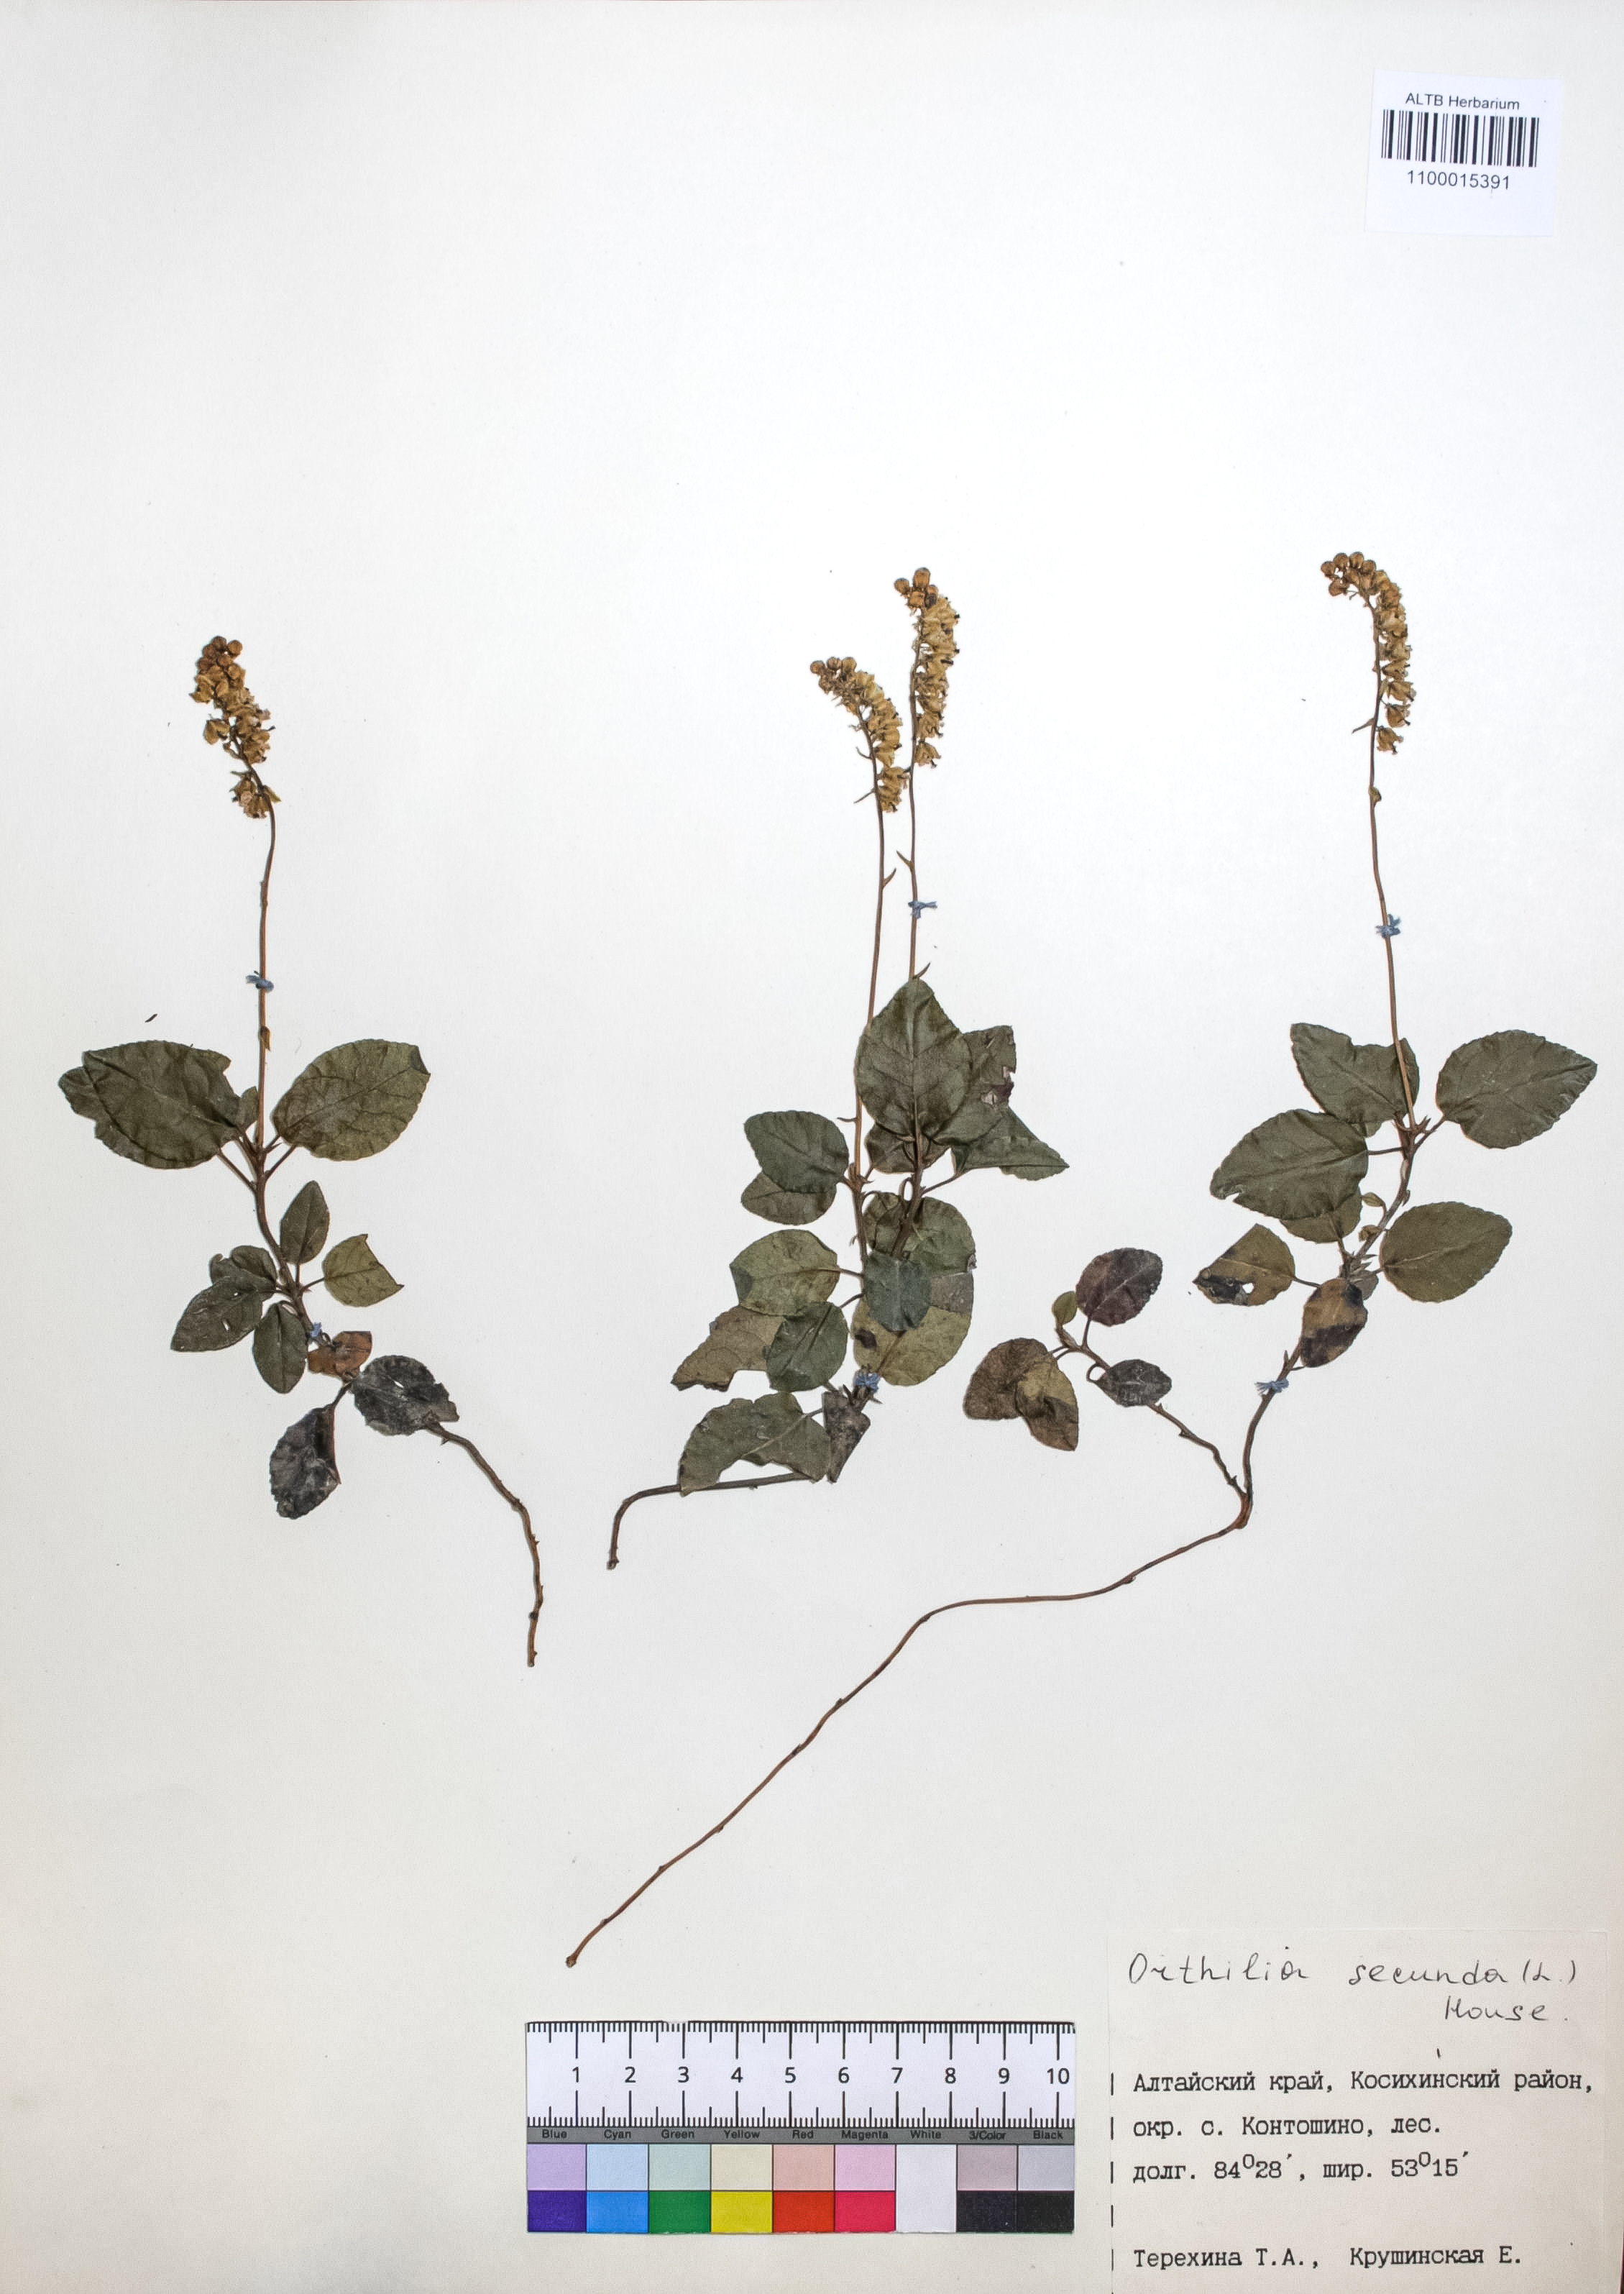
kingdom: Plantae
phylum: Tracheophyta
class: Magnoliopsida
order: Ericales
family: Ericaceae
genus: Orthilia
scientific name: Orthilia secunda
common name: One-sided orthilia
